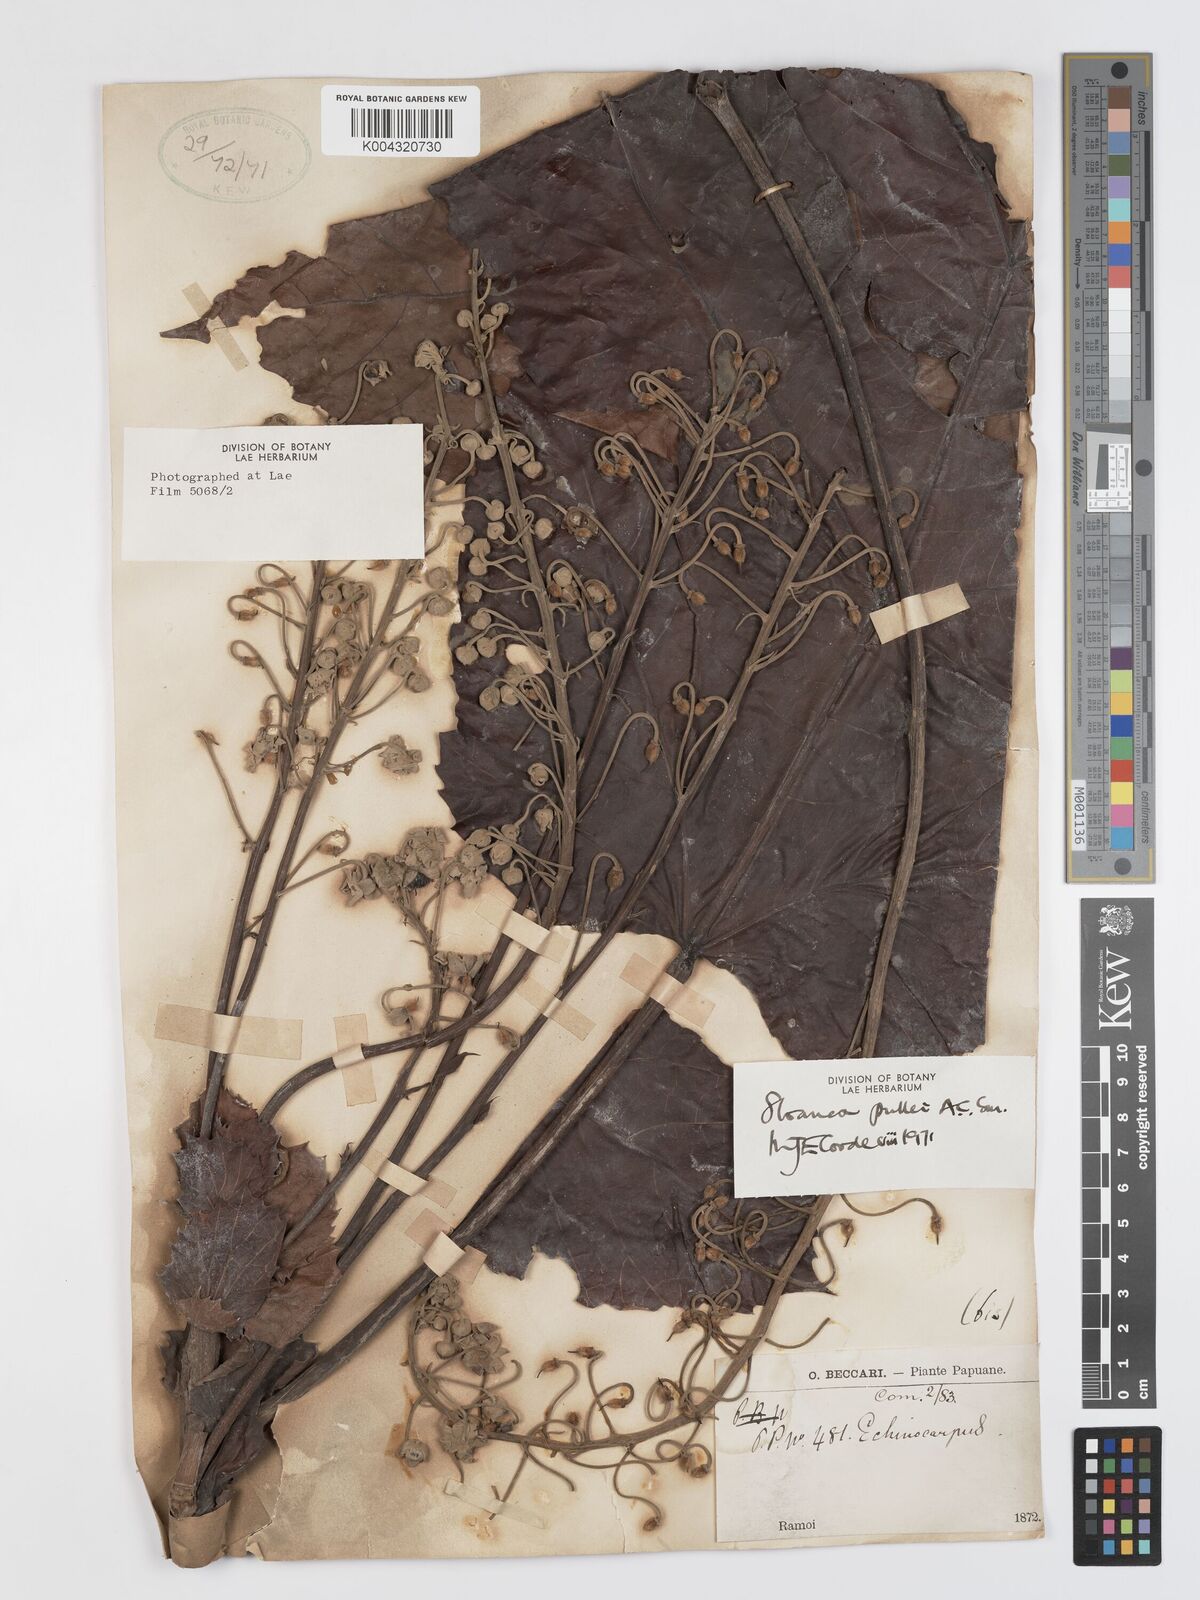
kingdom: Plantae
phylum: Tracheophyta
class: Magnoliopsida
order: Oxalidales
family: Elaeocarpaceae
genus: Sloanea
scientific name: Sloanea pullei
